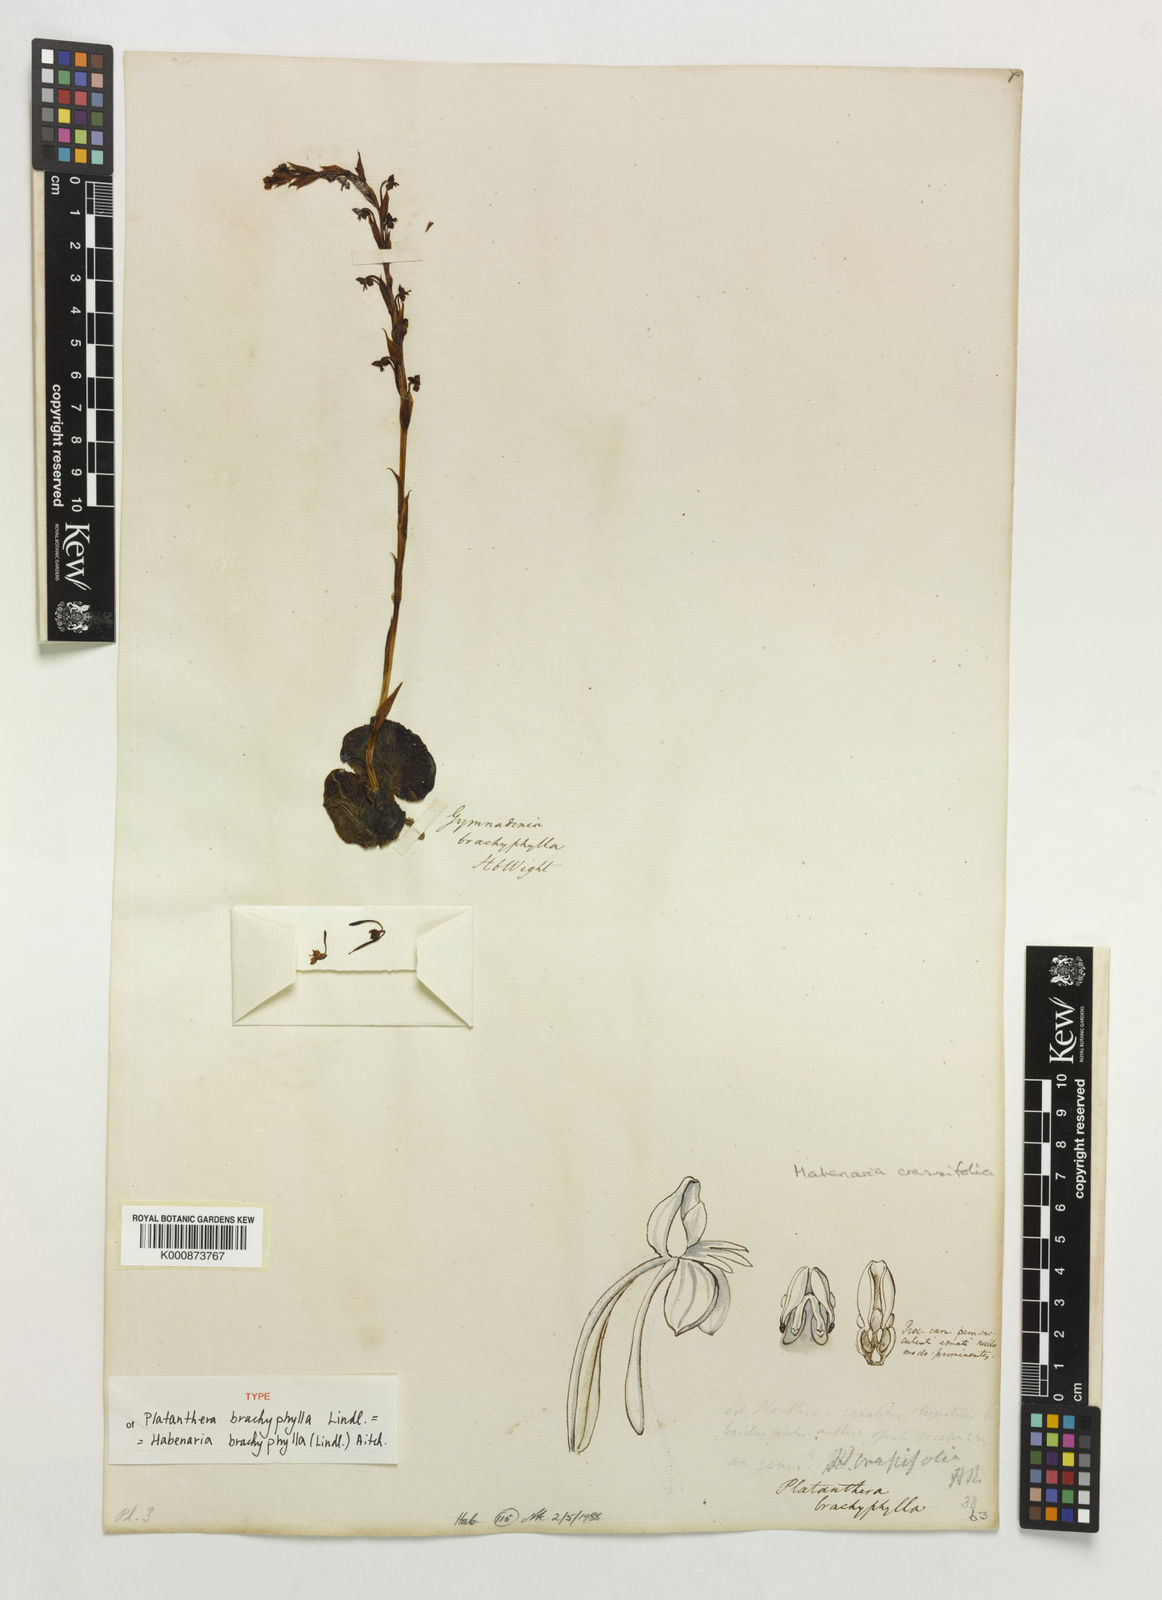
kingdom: Plantae
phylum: Tracheophyta
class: Liliopsida
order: Asparagales
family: Orchidaceae
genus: Habenaria
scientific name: Habenaria brachyphylla
